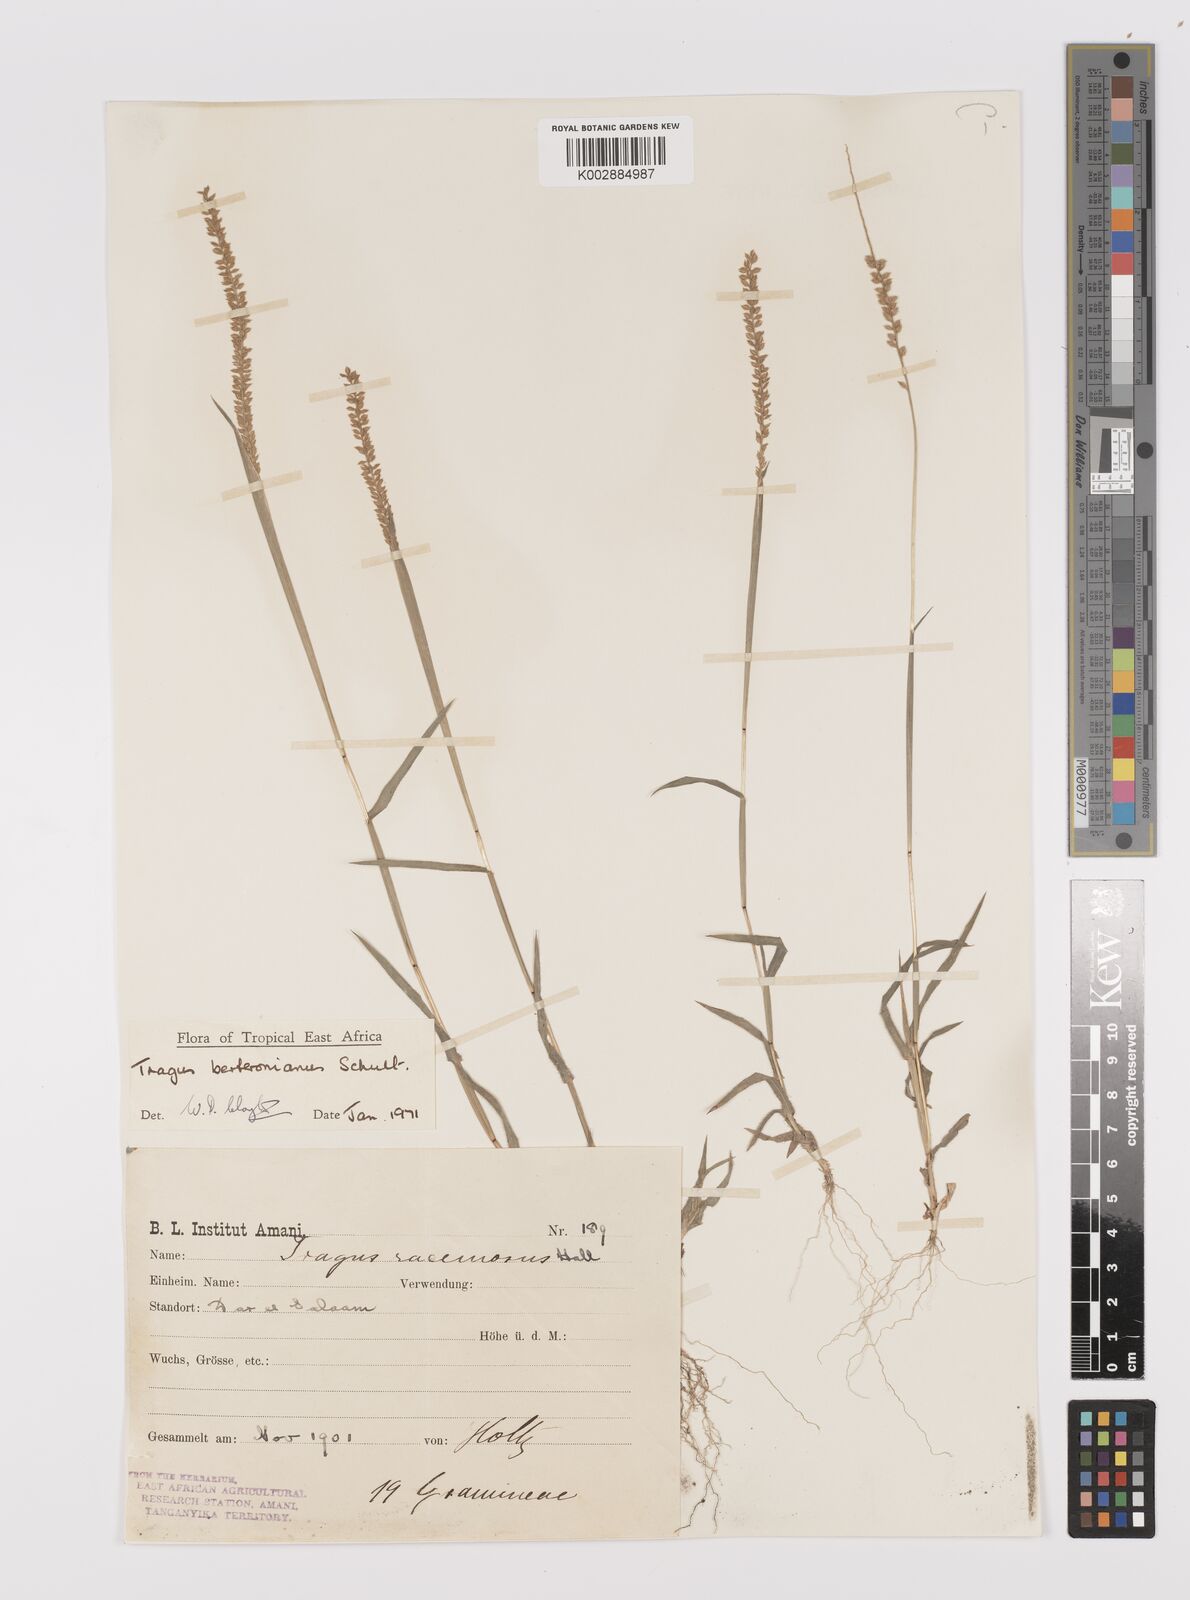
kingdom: Plantae
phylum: Tracheophyta
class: Liliopsida
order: Poales
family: Poaceae
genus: Tragus
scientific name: Tragus berteronianus
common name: African bur-grass
